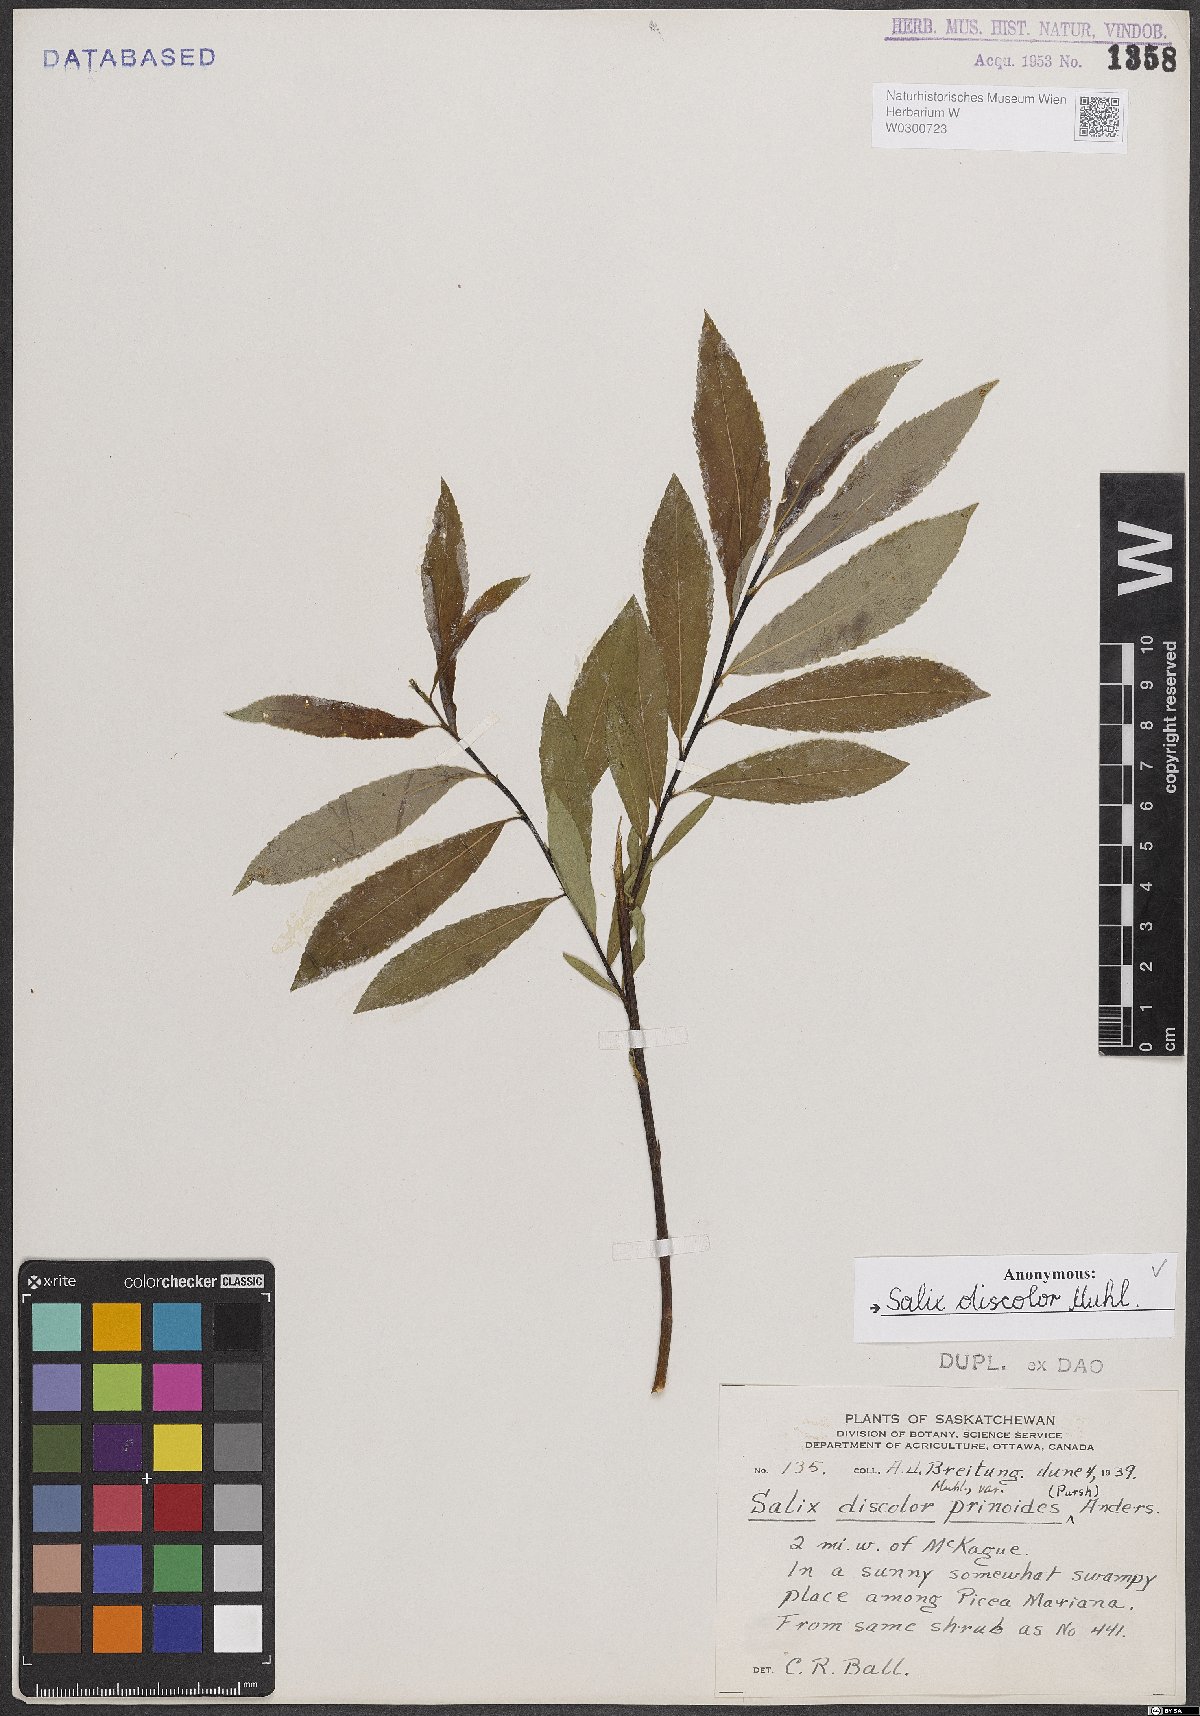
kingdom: Plantae
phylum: Tracheophyta
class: Magnoliopsida
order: Malpighiales
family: Salicaceae
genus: Salix
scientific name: Salix discolor
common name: Glaucous willow
